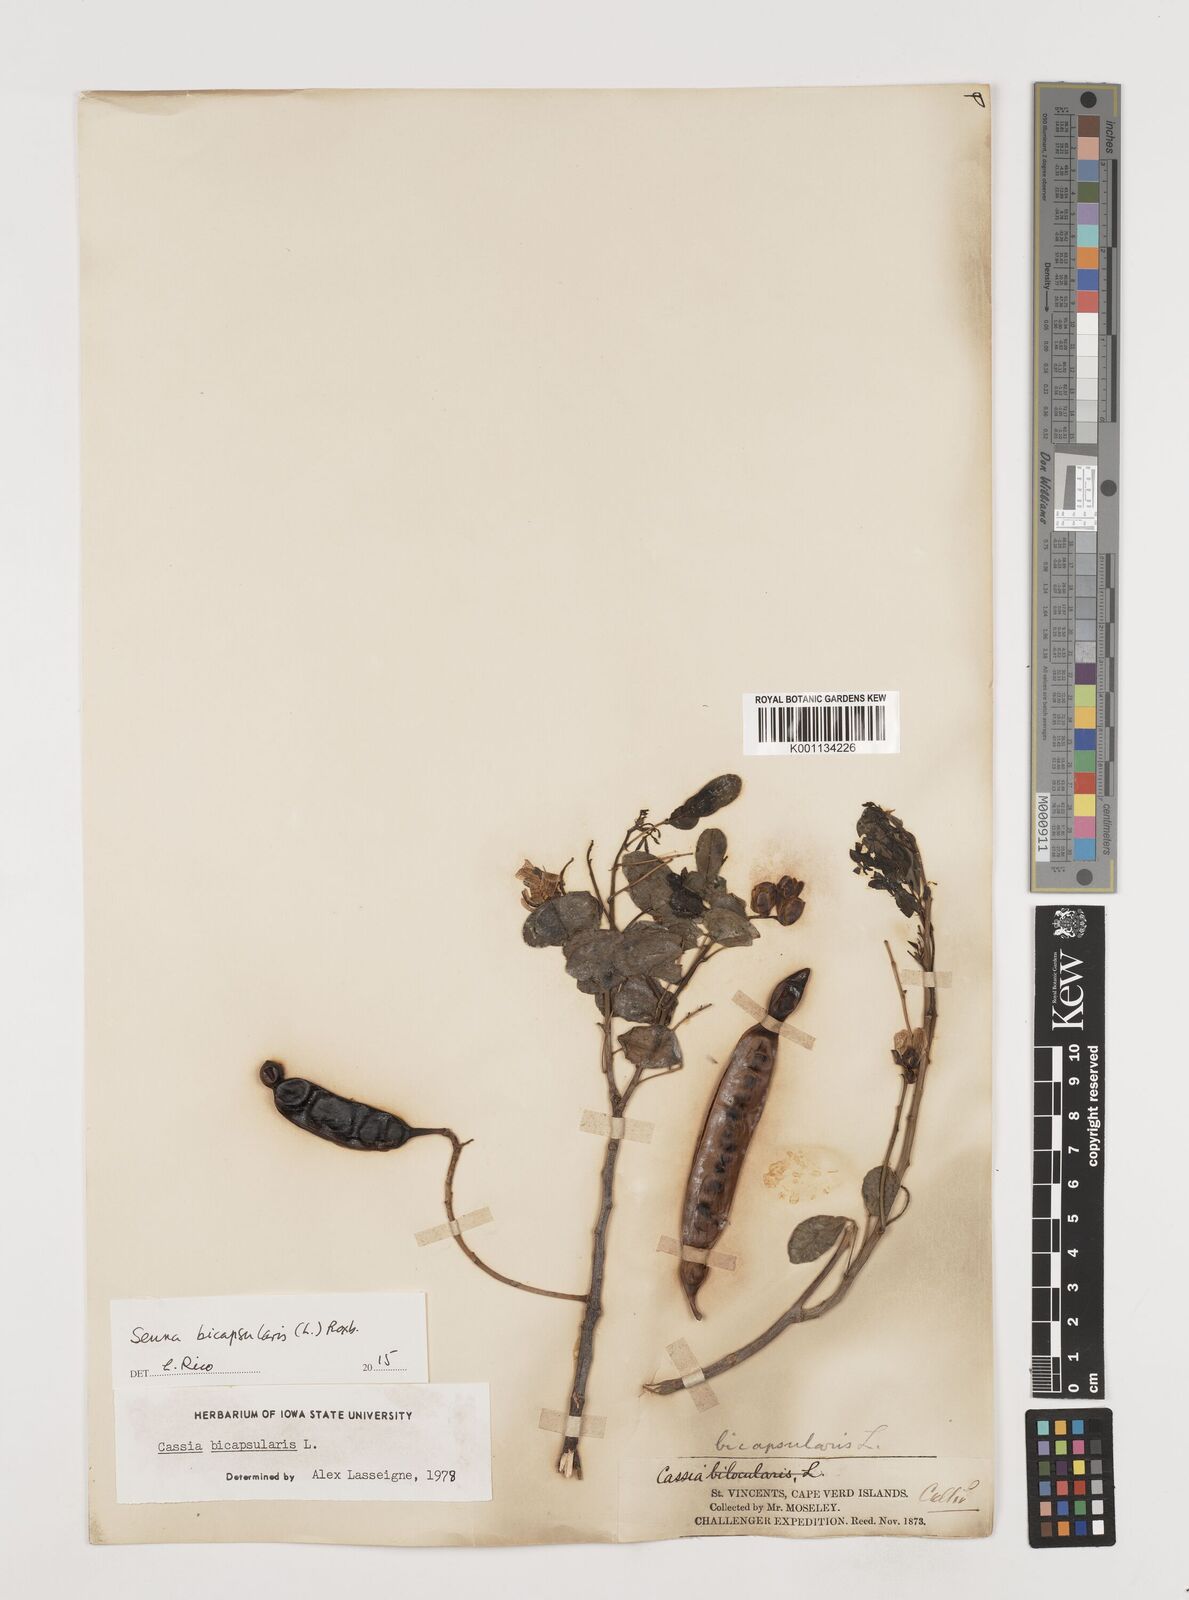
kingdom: Plantae
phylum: Tracheophyta
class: Magnoliopsida
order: Fabales
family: Fabaceae
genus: Senna
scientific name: Senna bicapsularis
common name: Christmasbush
